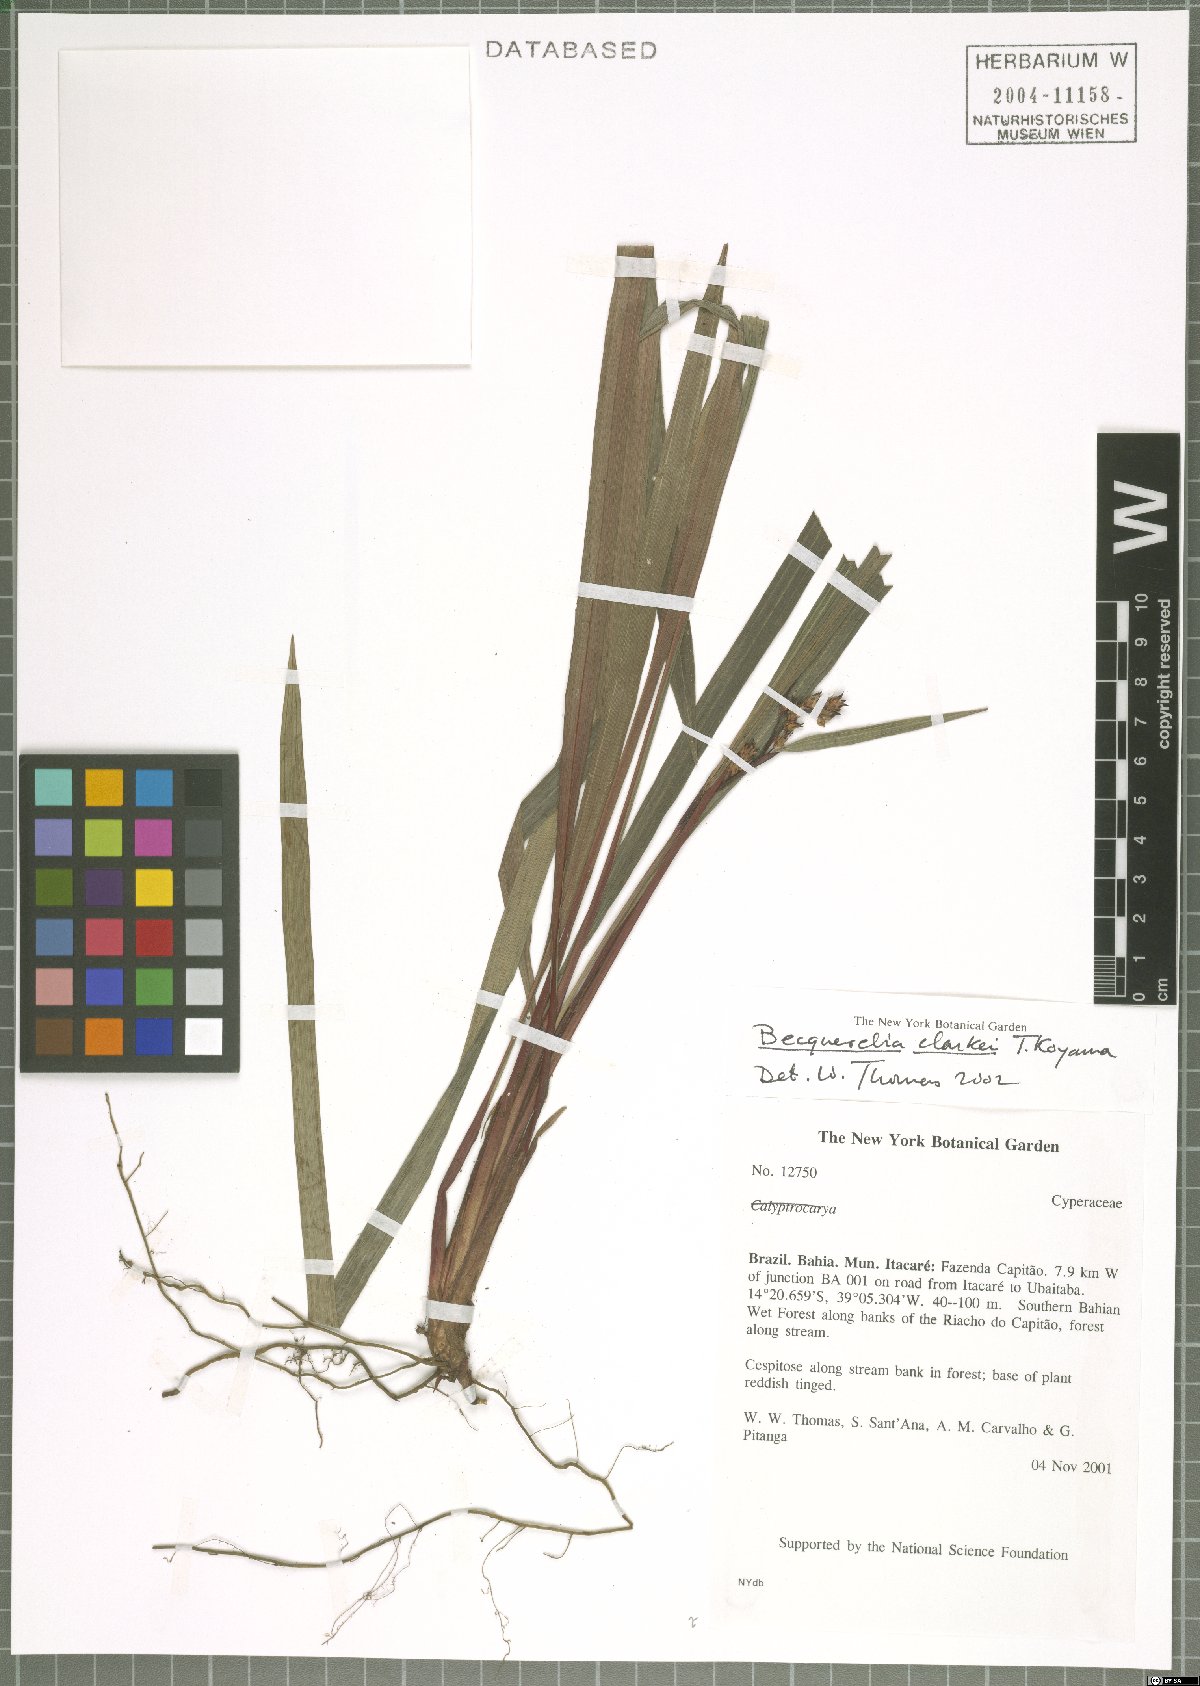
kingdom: Plantae
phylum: Tracheophyta
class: Liliopsida
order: Poales
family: Cyperaceae
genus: Becquerelia
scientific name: Becquerelia clarkei
